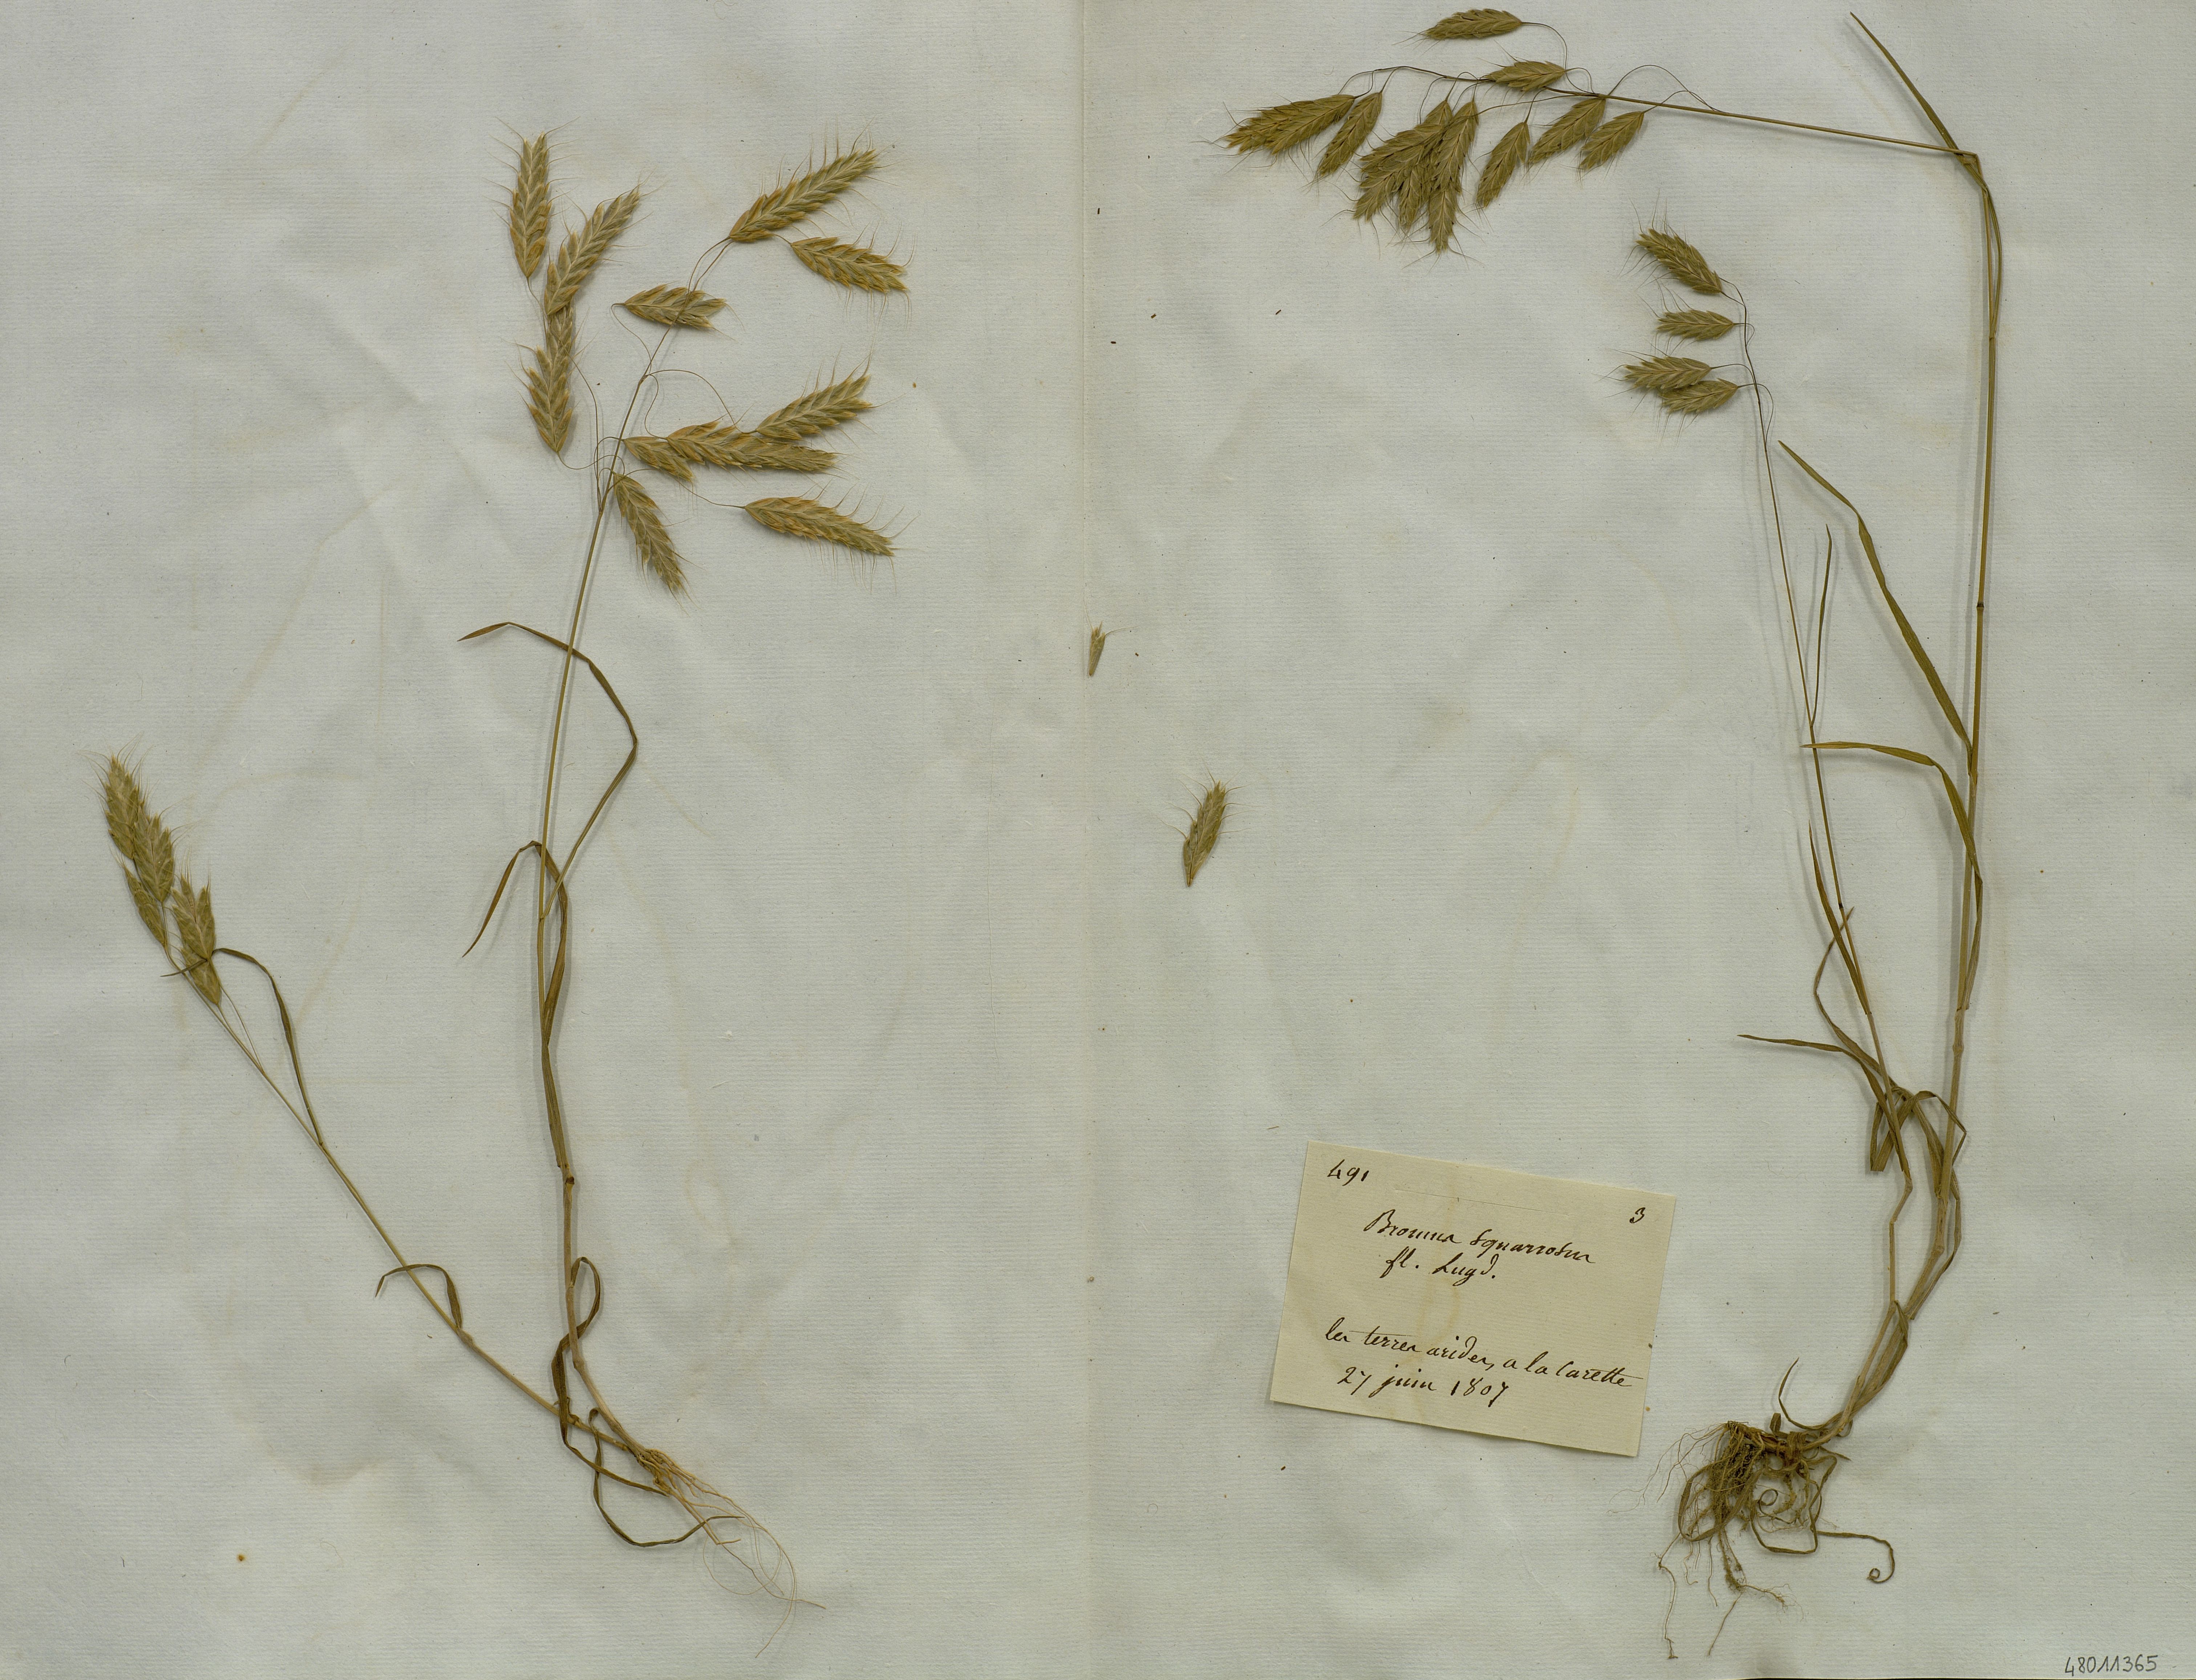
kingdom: Plantae
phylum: Tracheophyta
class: Liliopsida
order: Poales
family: Poaceae
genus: Bromus
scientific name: Bromus squarrosus
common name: Corn brome
